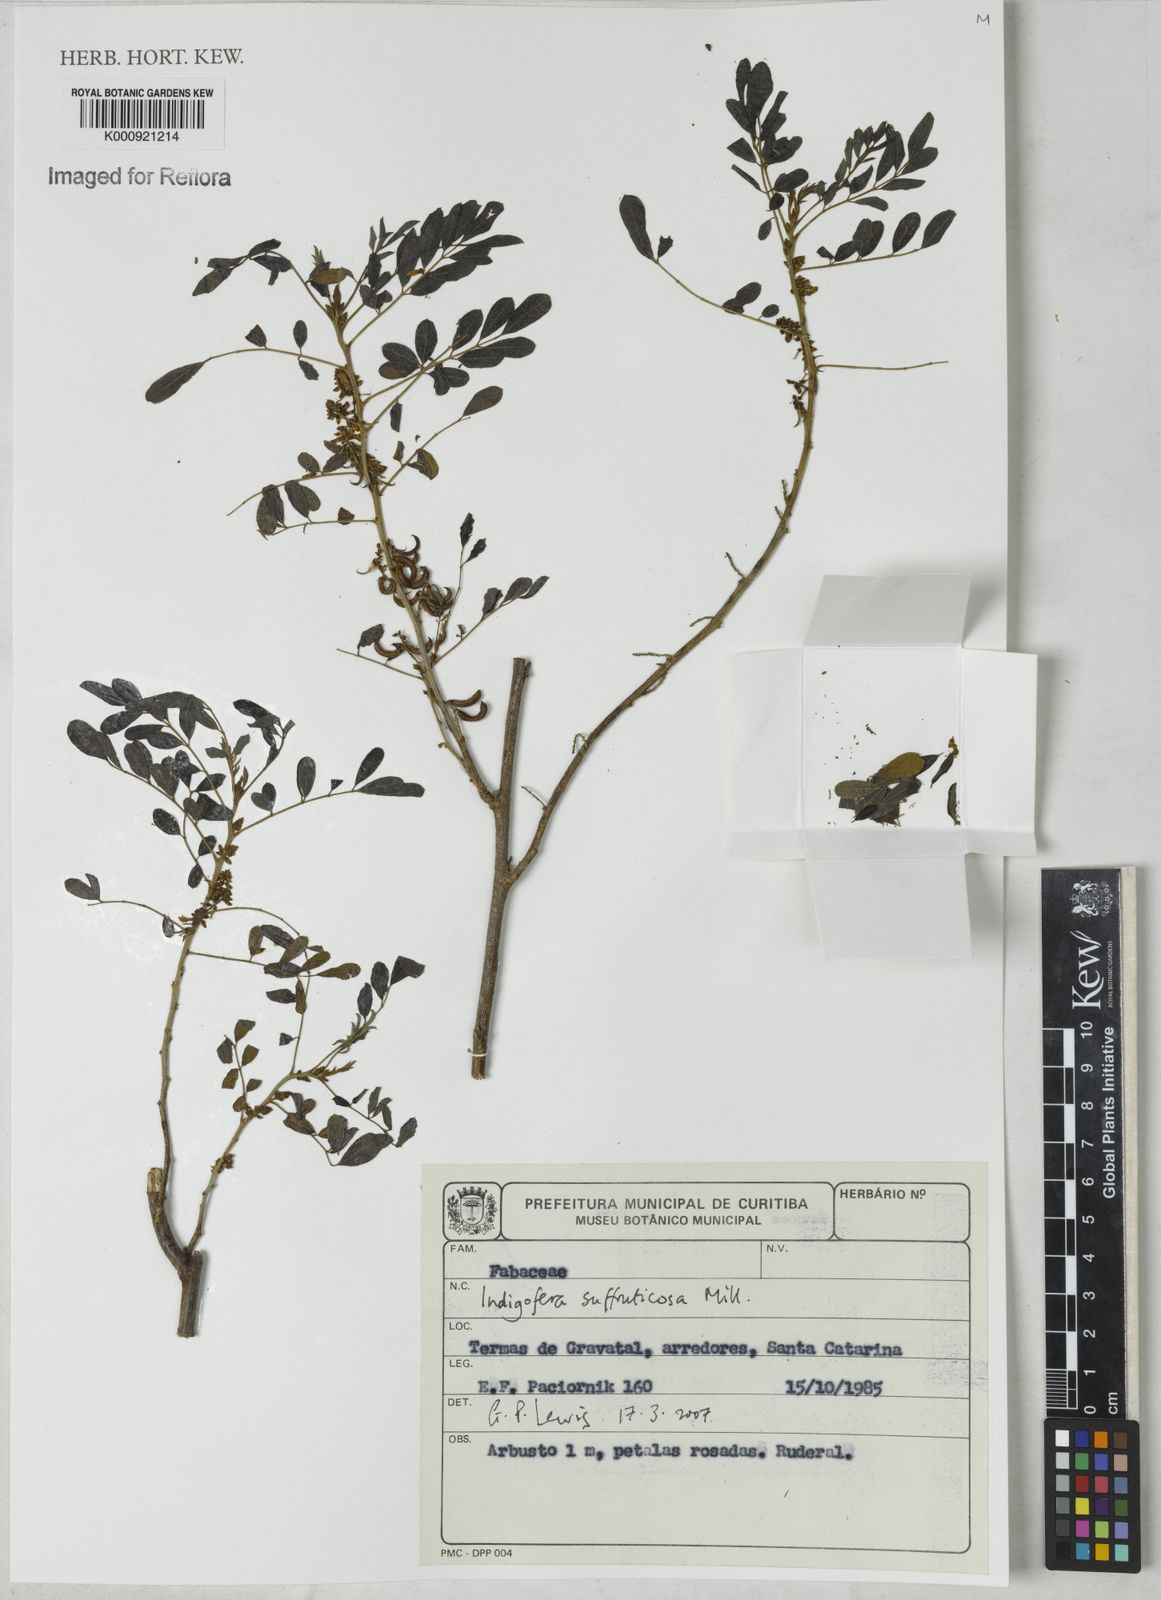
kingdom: Plantae
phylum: Tracheophyta
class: Magnoliopsida
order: Fabales
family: Fabaceae
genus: Indigofera
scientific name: Indigofera suffruticosa
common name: Anil de pasto
